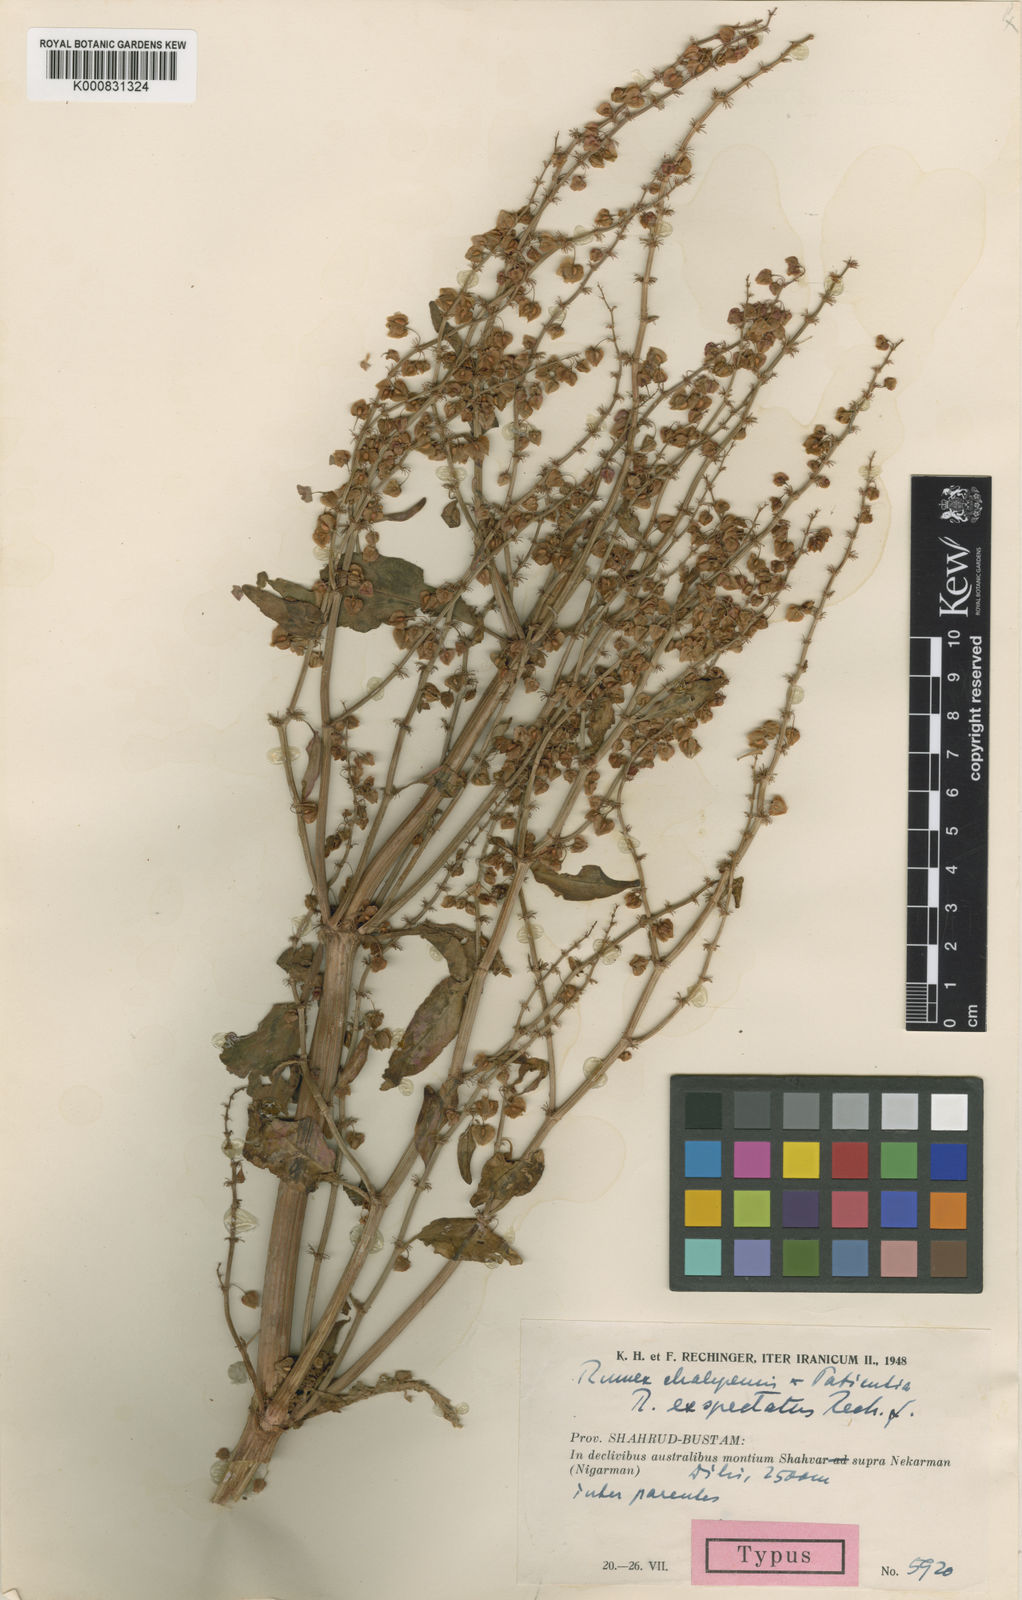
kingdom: Plantae
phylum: Tracheophyta
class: Magnoliopsida
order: Caryophyllales
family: Polygonaceae
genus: Rumex
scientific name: Rumex exspectatus
